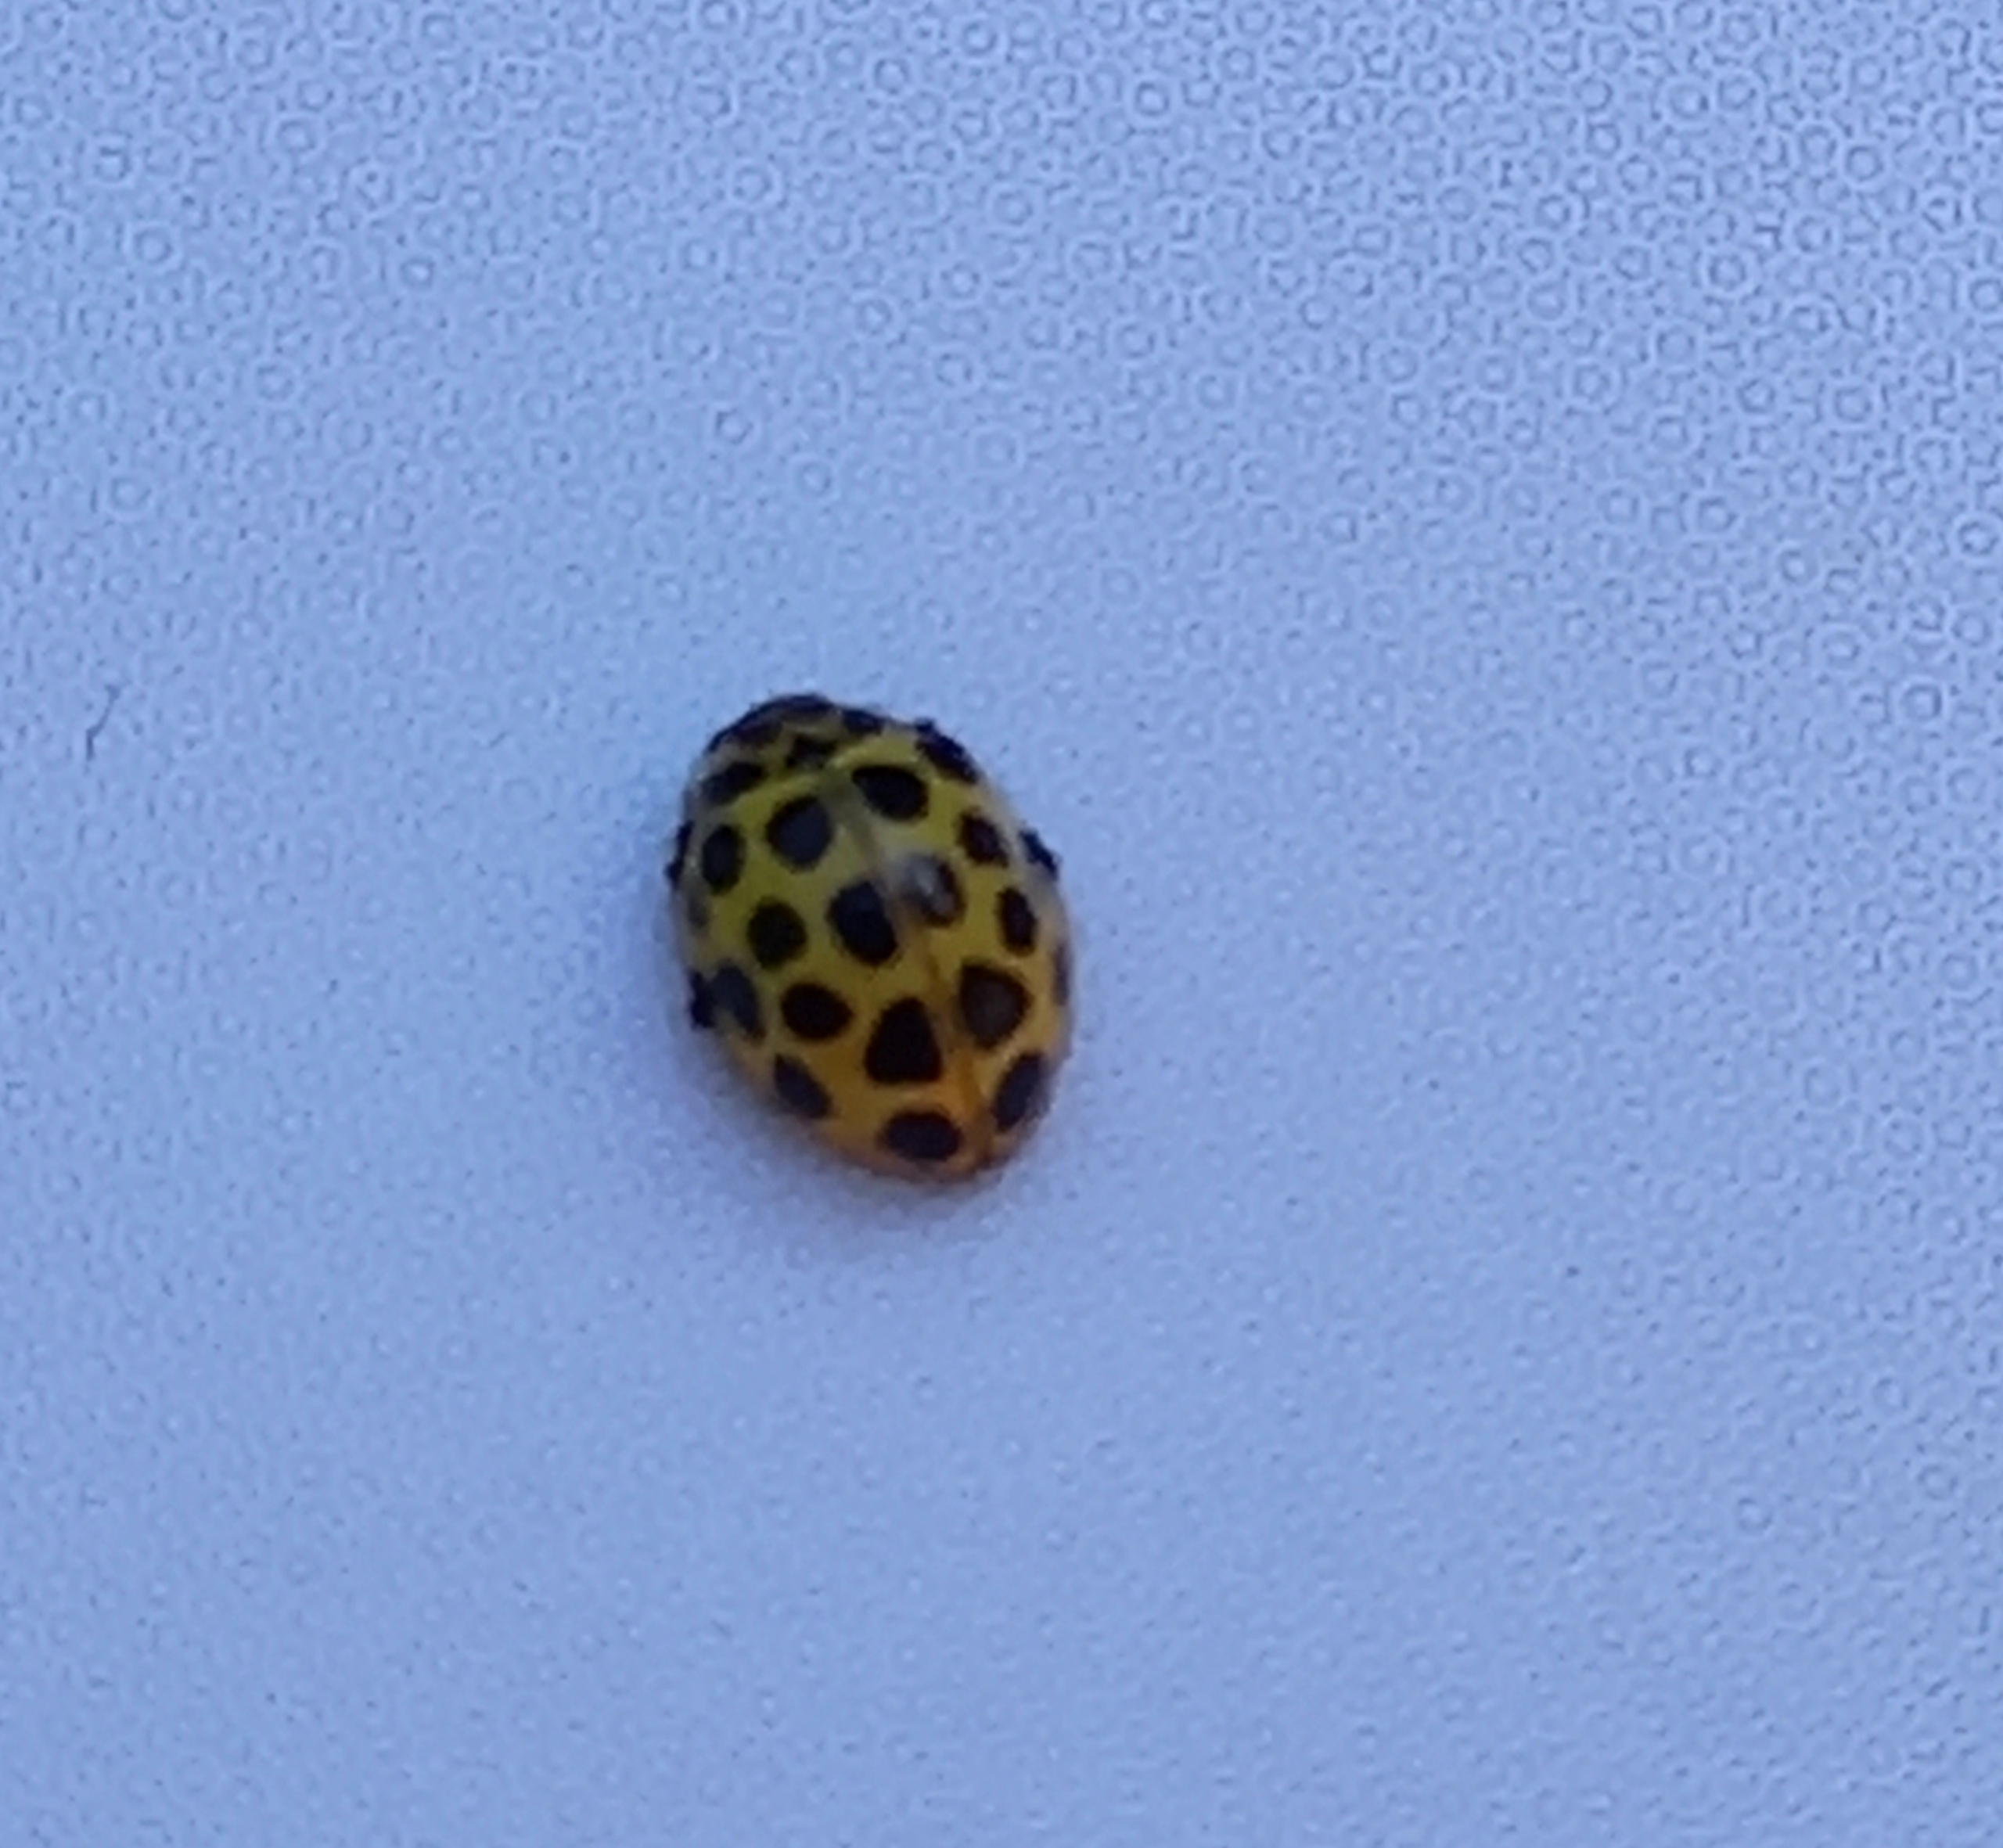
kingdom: Animalia
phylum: Arthropoda
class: Insecta
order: Coleoptera
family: Coccinellidae
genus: Psyllobora
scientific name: Psyllobora vigintiduopunctata
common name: Toogtyveplettet mariehøne
